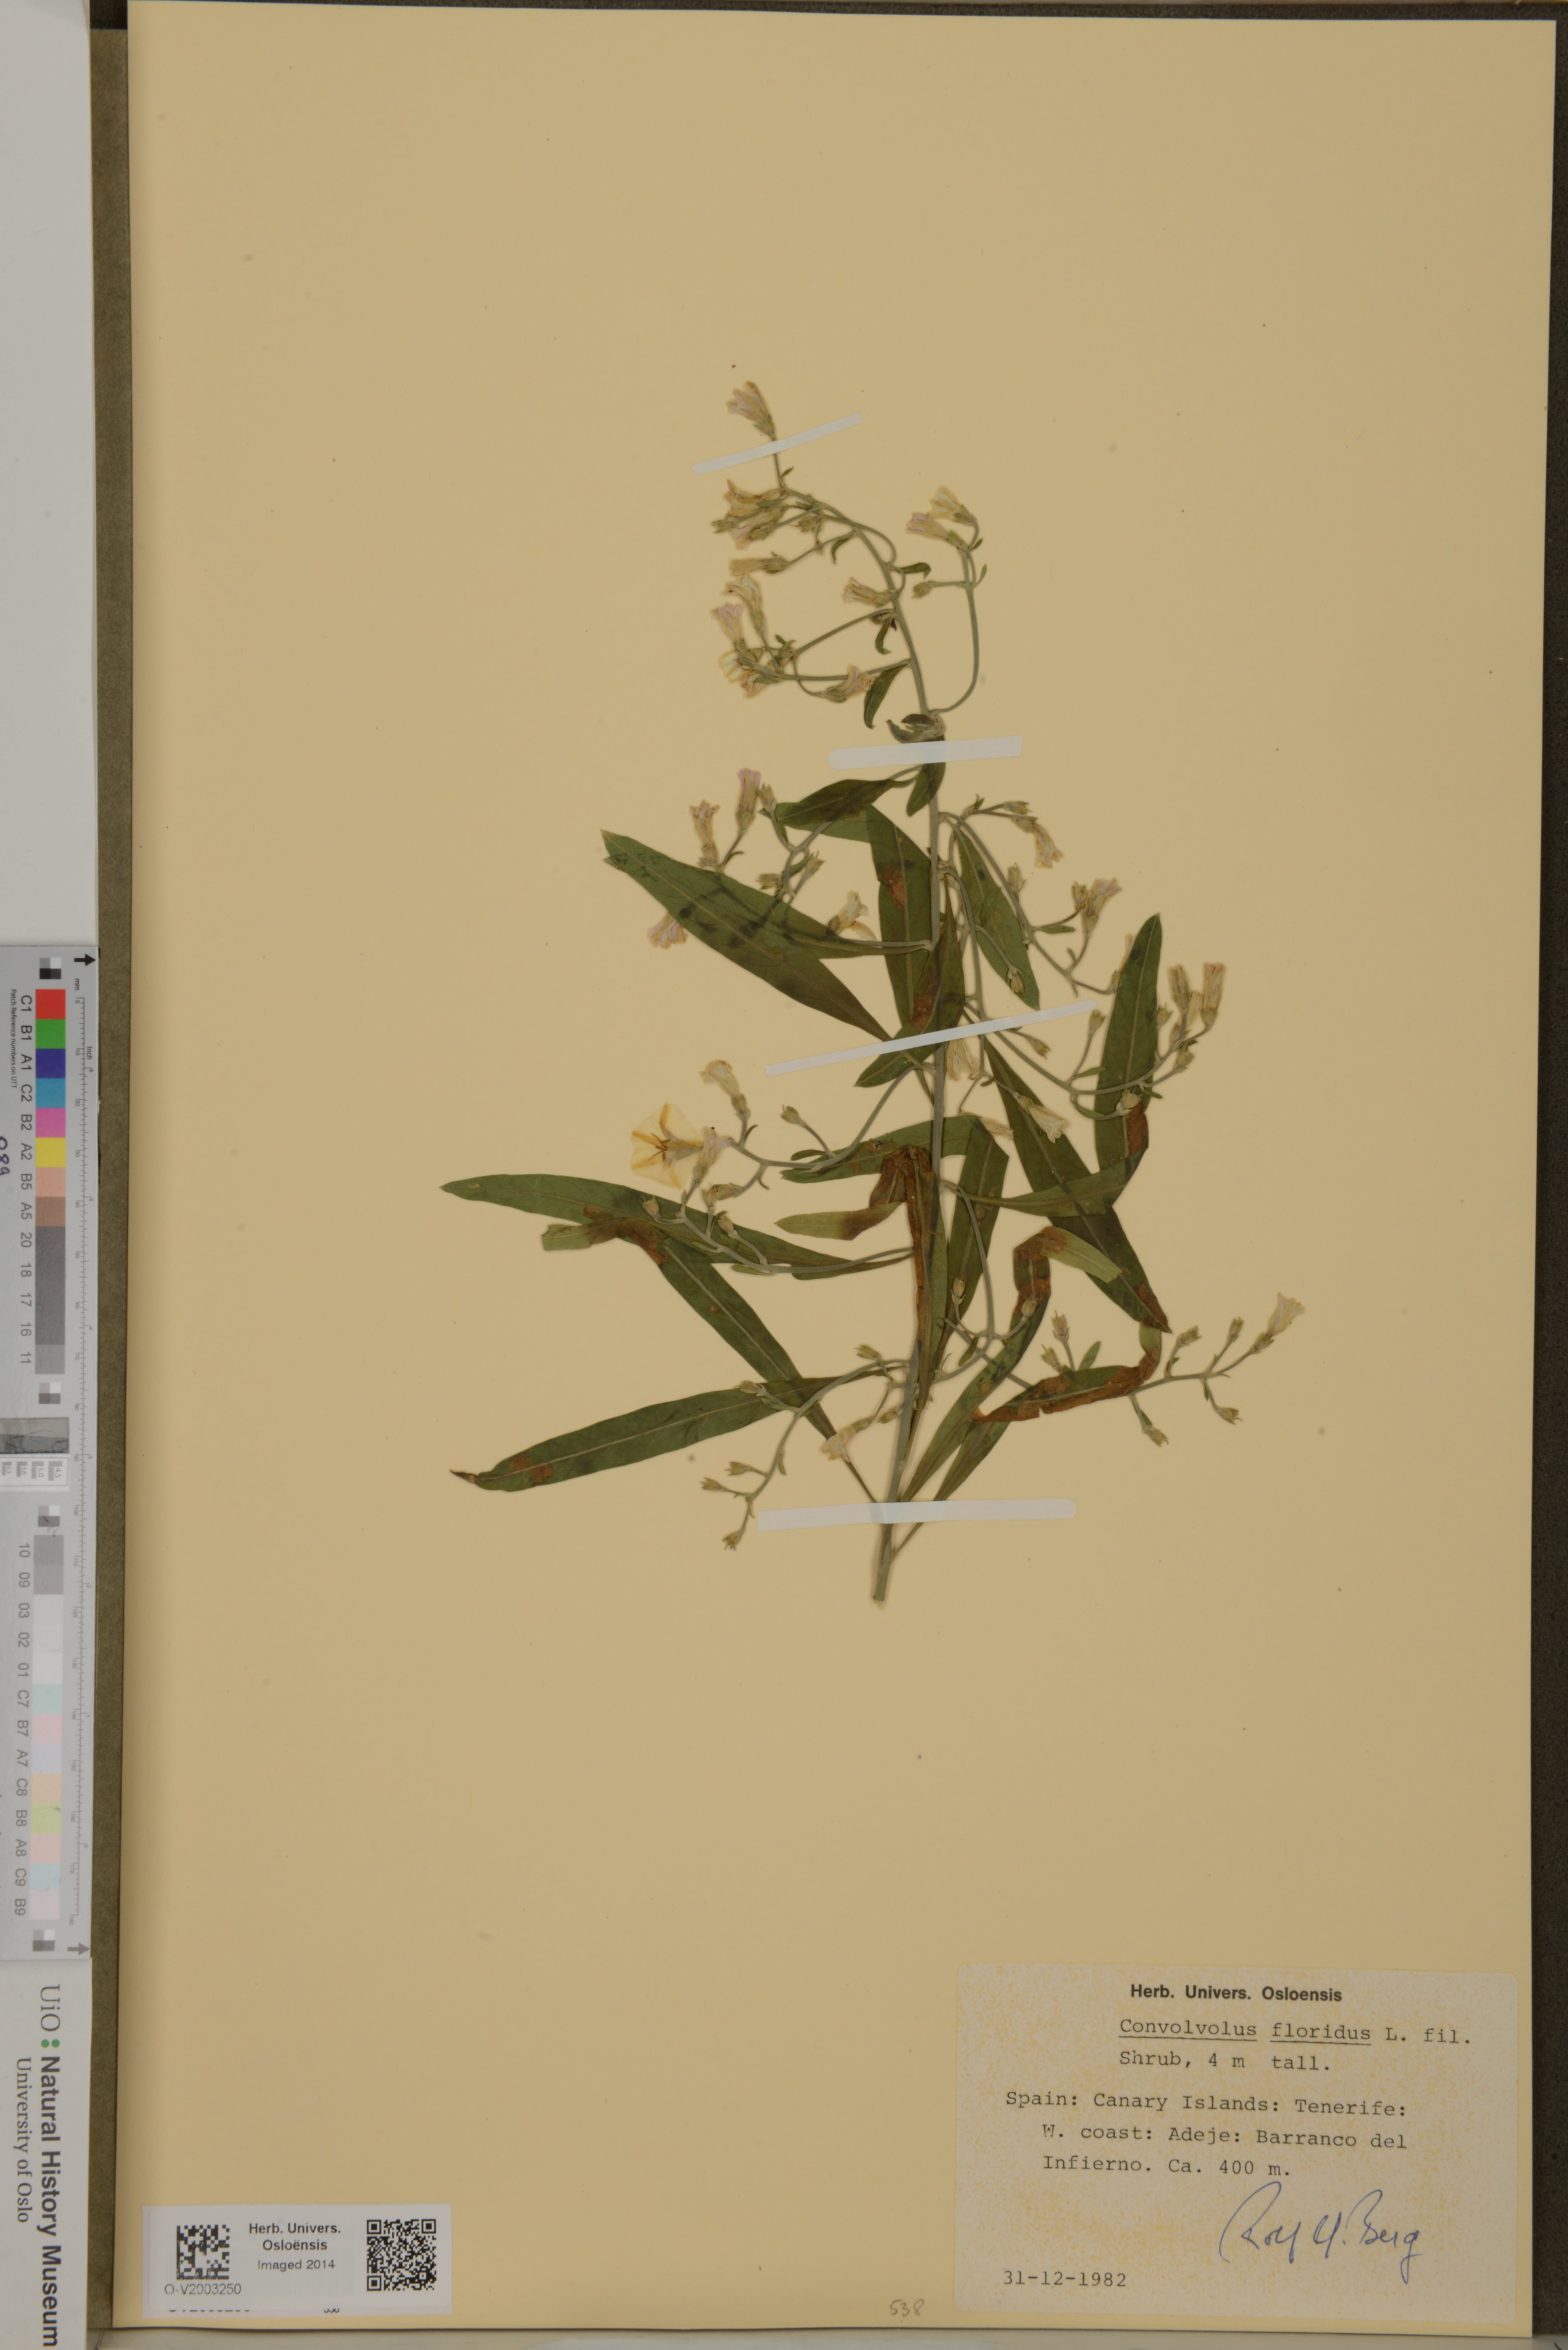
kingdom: Plantae
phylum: Tracheophyta
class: Magnoliopsida
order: Solanales
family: Convolvulaceae
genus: Convolvulus
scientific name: Convolvulus floridus
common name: Guadil
